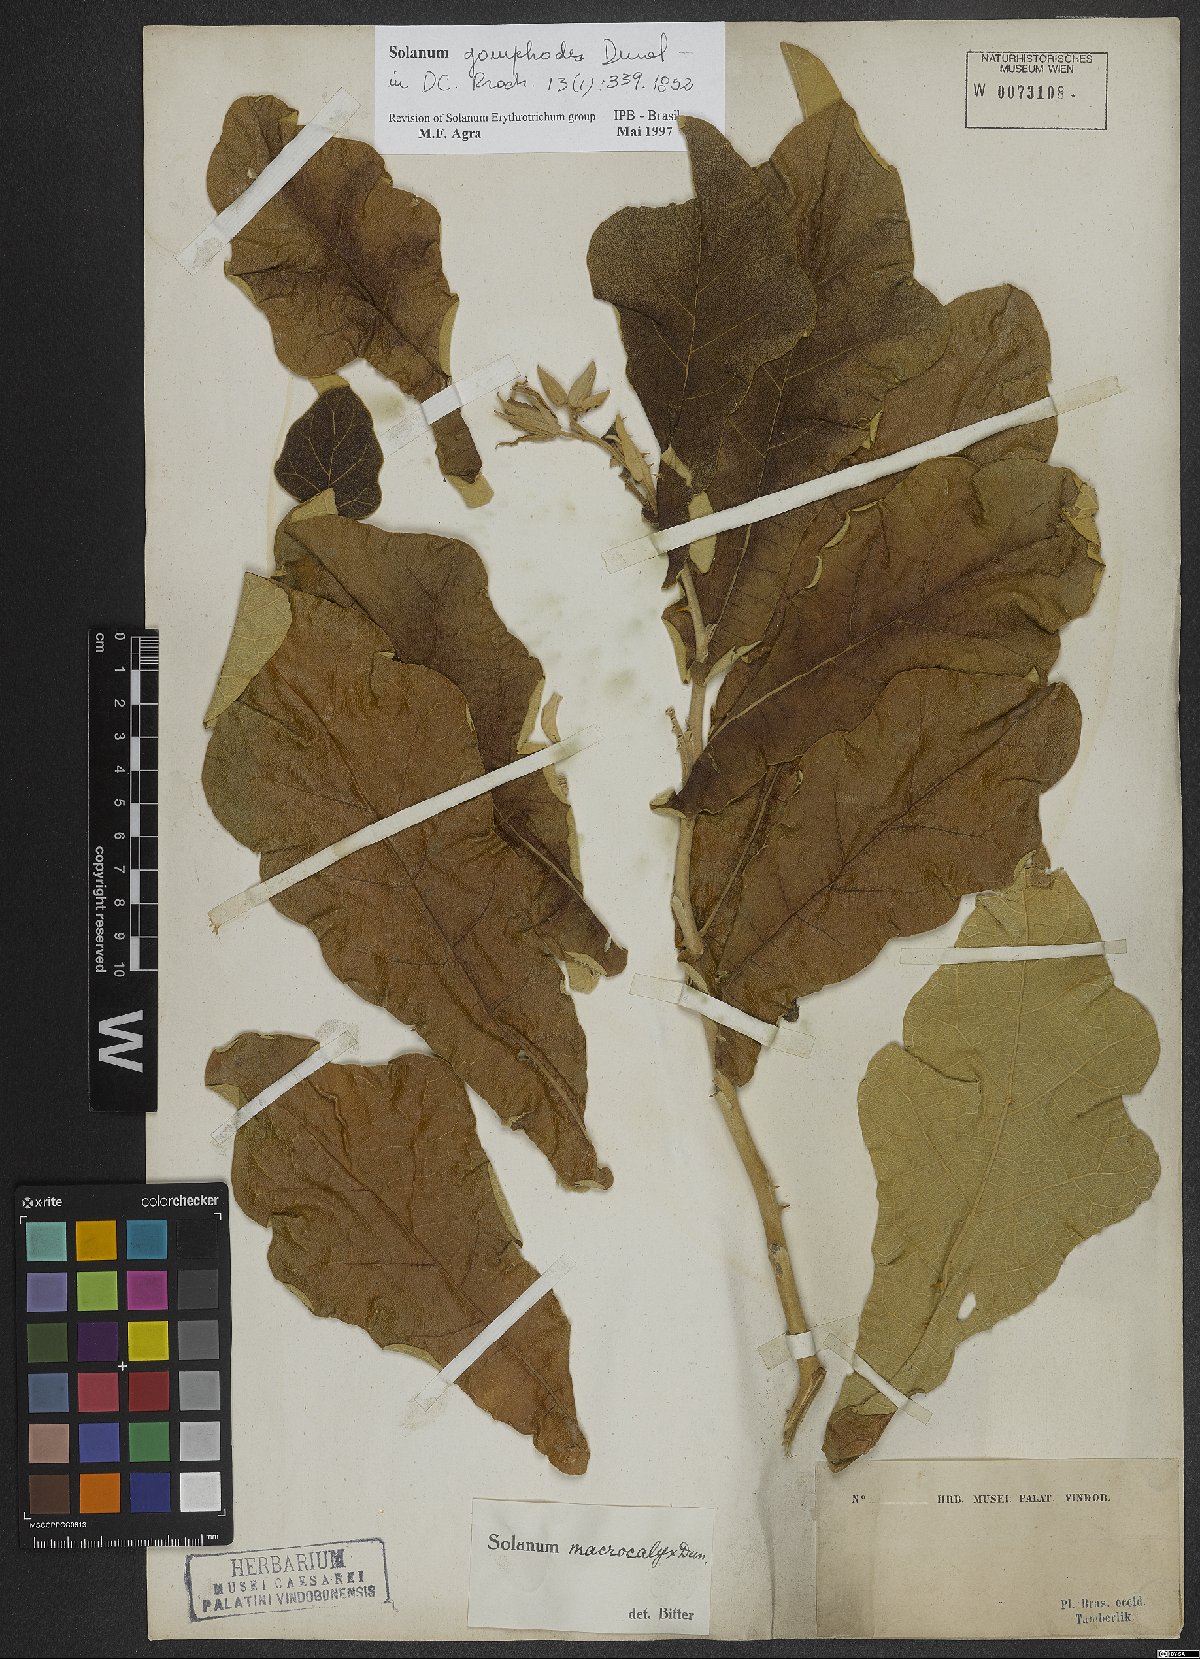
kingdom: Plantae
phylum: Tracheophyta
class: Magnoliopsida
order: Solanales
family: Solanaceae
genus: Solanum
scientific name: Solanum gomphodes
